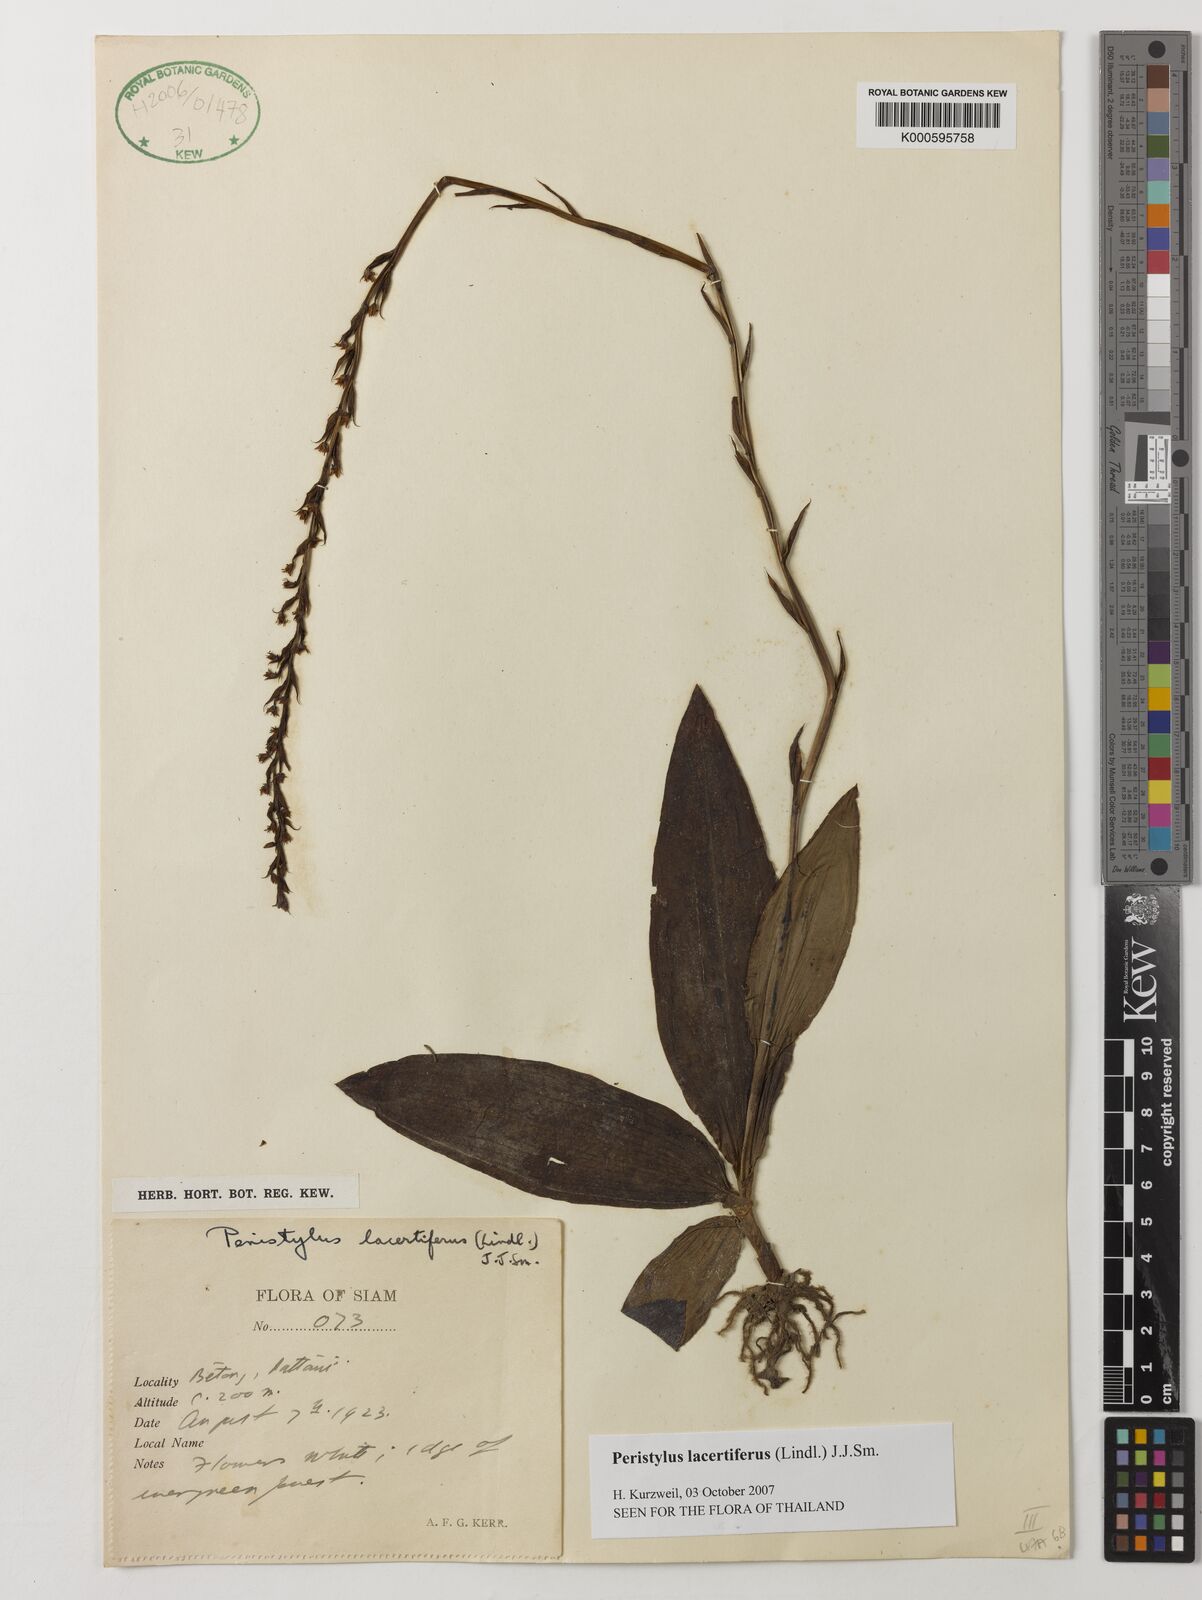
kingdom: Plantae
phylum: Tracheophyta
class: Liliopsida
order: Asparagales
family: Orchidaceae
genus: Peristylus
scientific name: Peristylus
